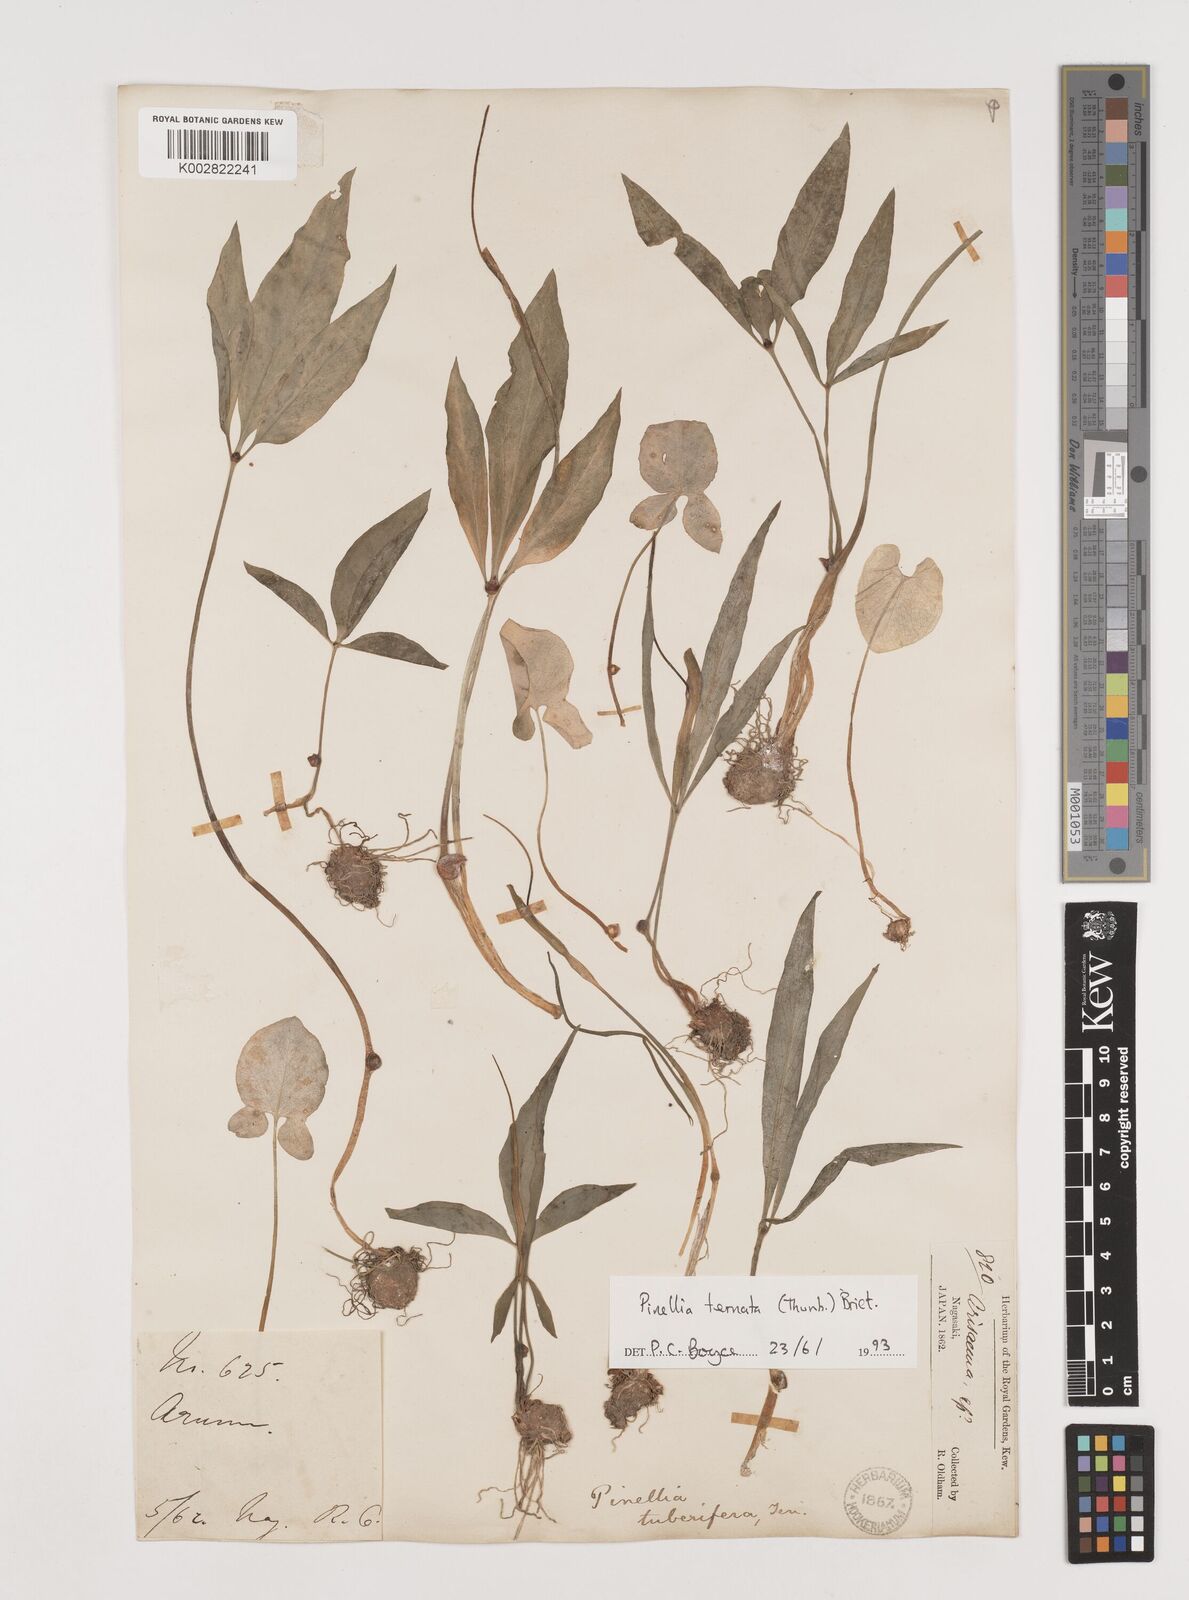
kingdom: Plantae
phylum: Tracheophyta
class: Liliopsida
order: Alismatales
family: Araceae
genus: Pinellia
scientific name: Pinellia ternata
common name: Pinellia
